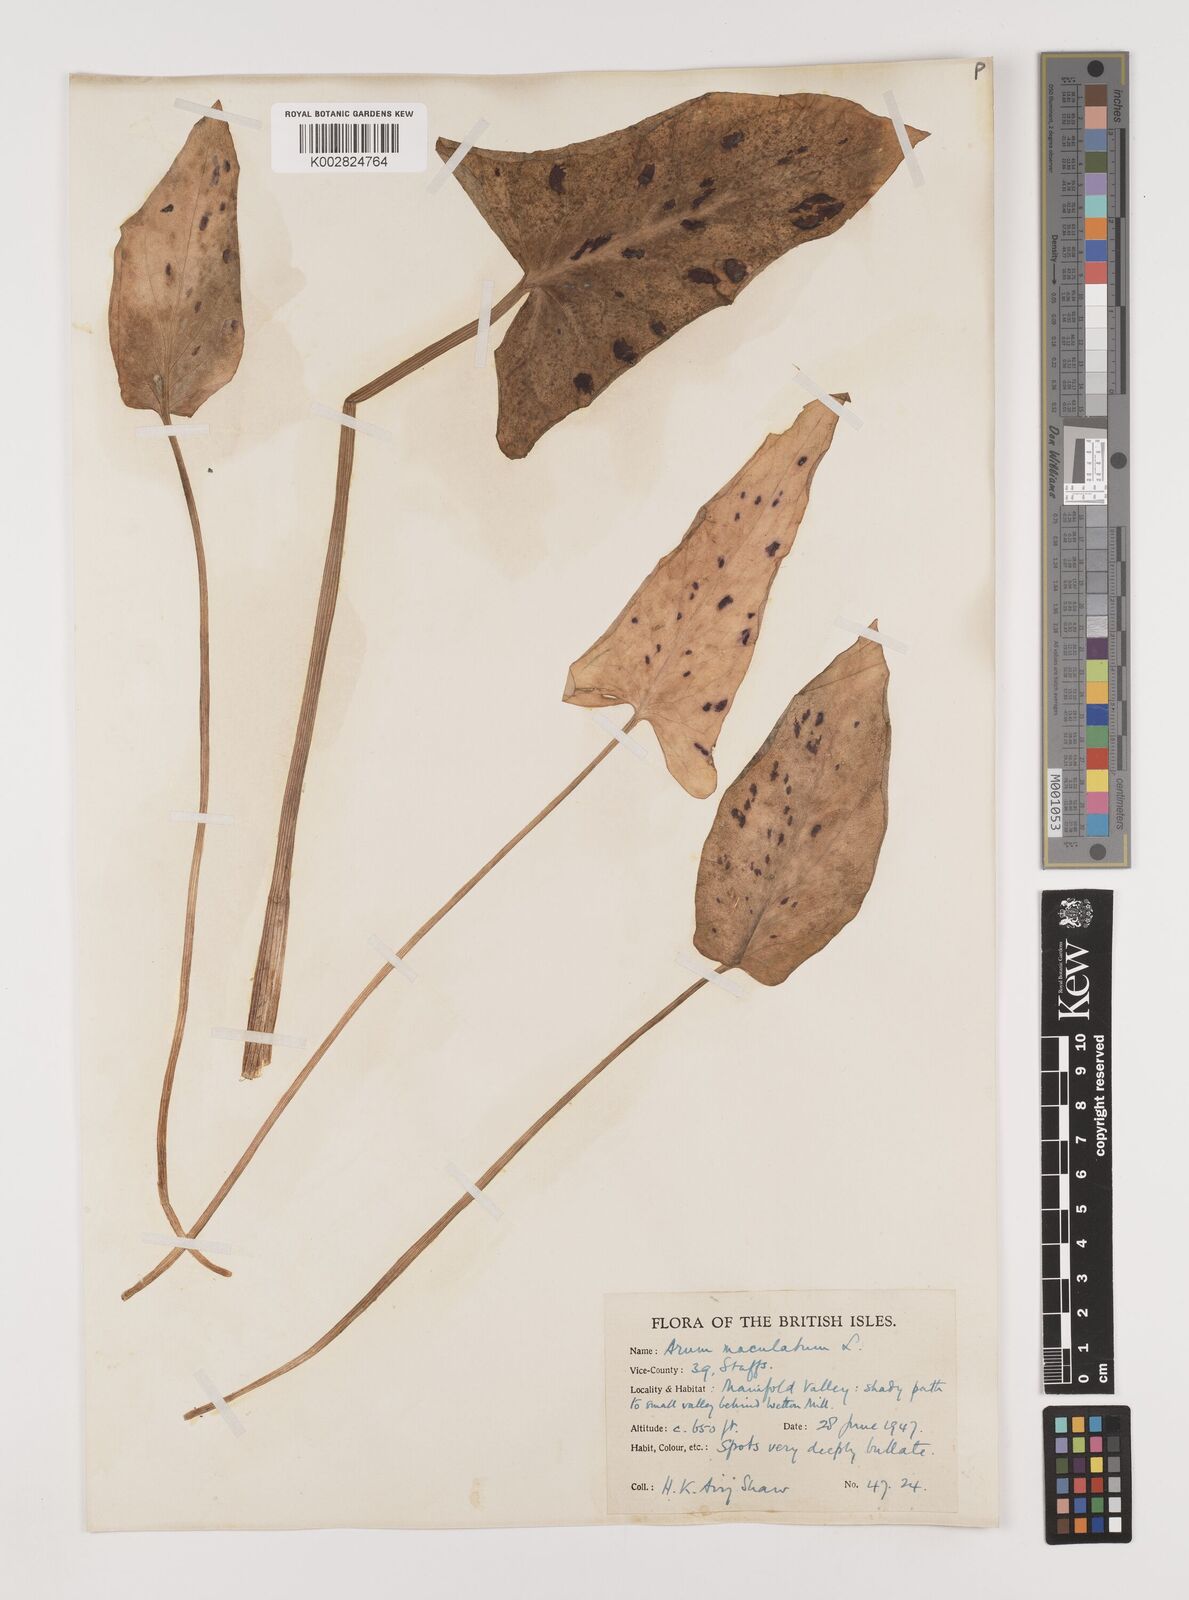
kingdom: Plantae
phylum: Tracheophyta
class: Liliopsida
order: Alismatales
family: Araceae
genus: Arum
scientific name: Arum maculatum
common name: Lords-and-ladies
